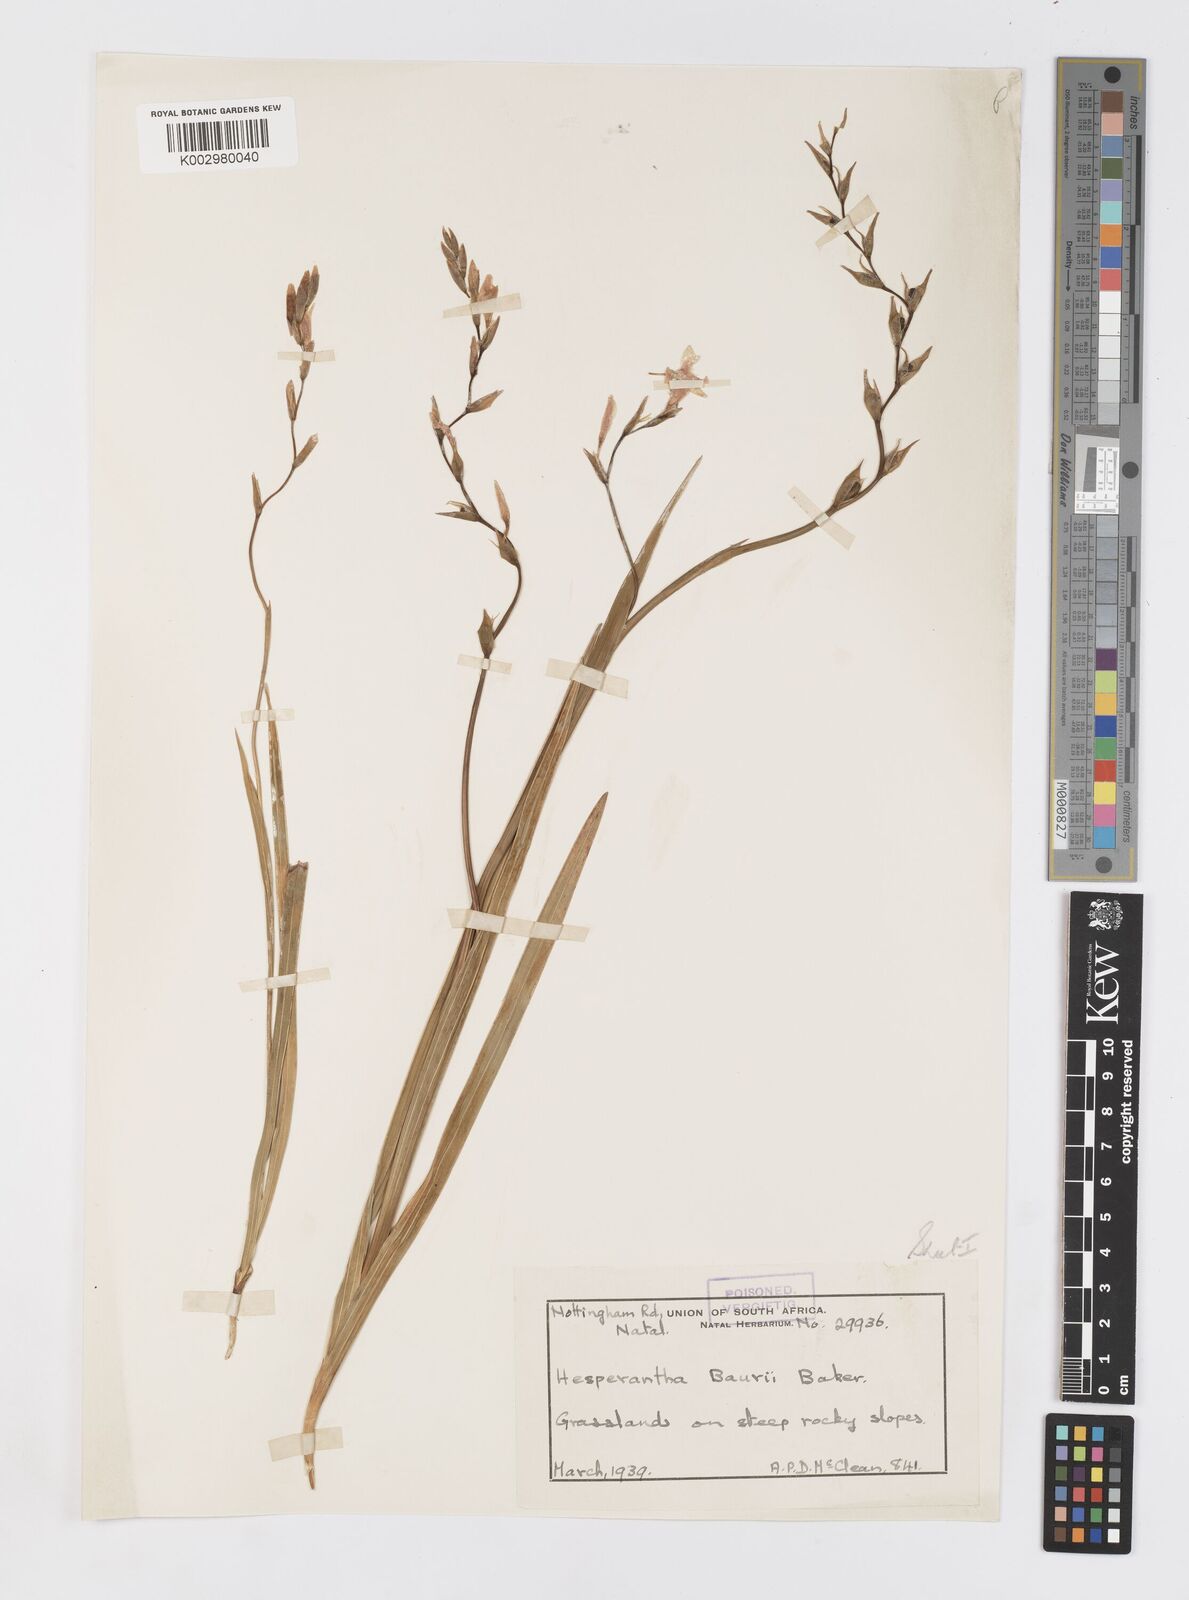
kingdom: Plantae
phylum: Tracheophyta
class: Liliopsida
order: Asparagales
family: Iridaceae
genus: Hesperantha
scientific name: Hesperantha baurii
